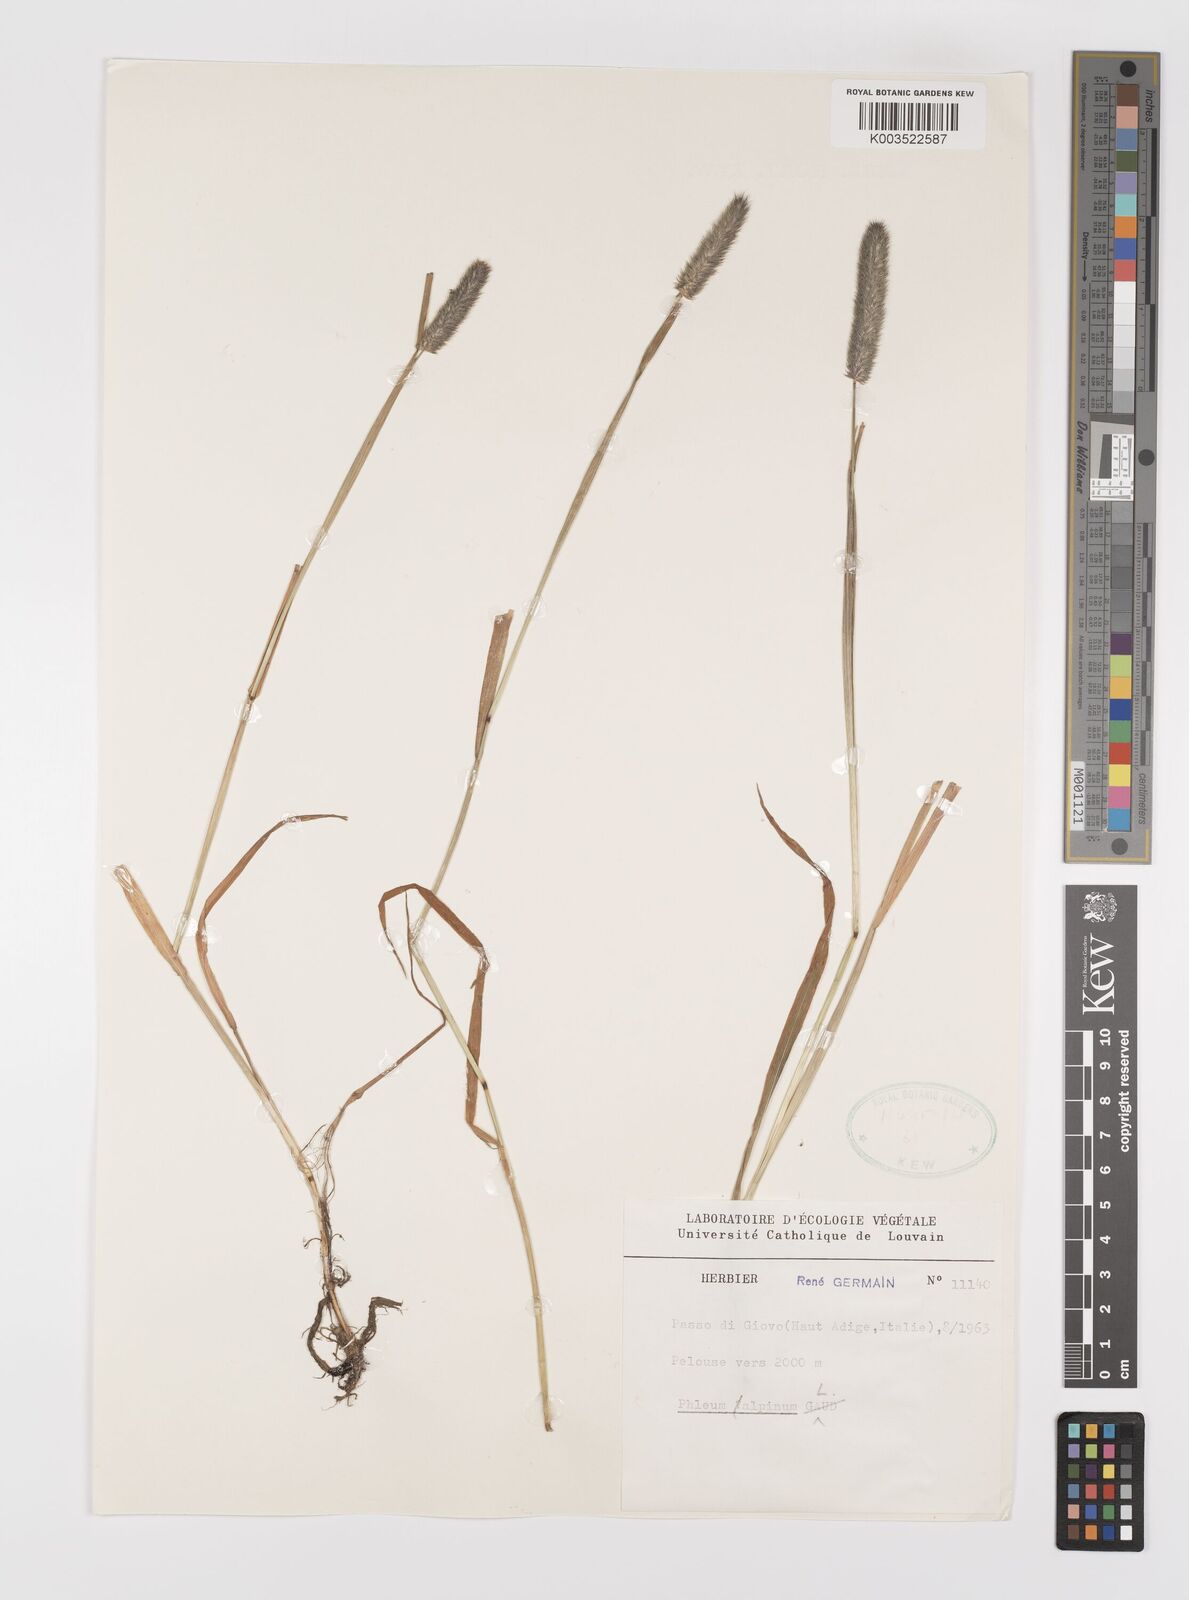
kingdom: Plantae
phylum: Tracheophyta
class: Liliopsida
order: Poales
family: Poaceae
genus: Phleum
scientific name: Phleum alpinum
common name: Alpine cat's-tail
